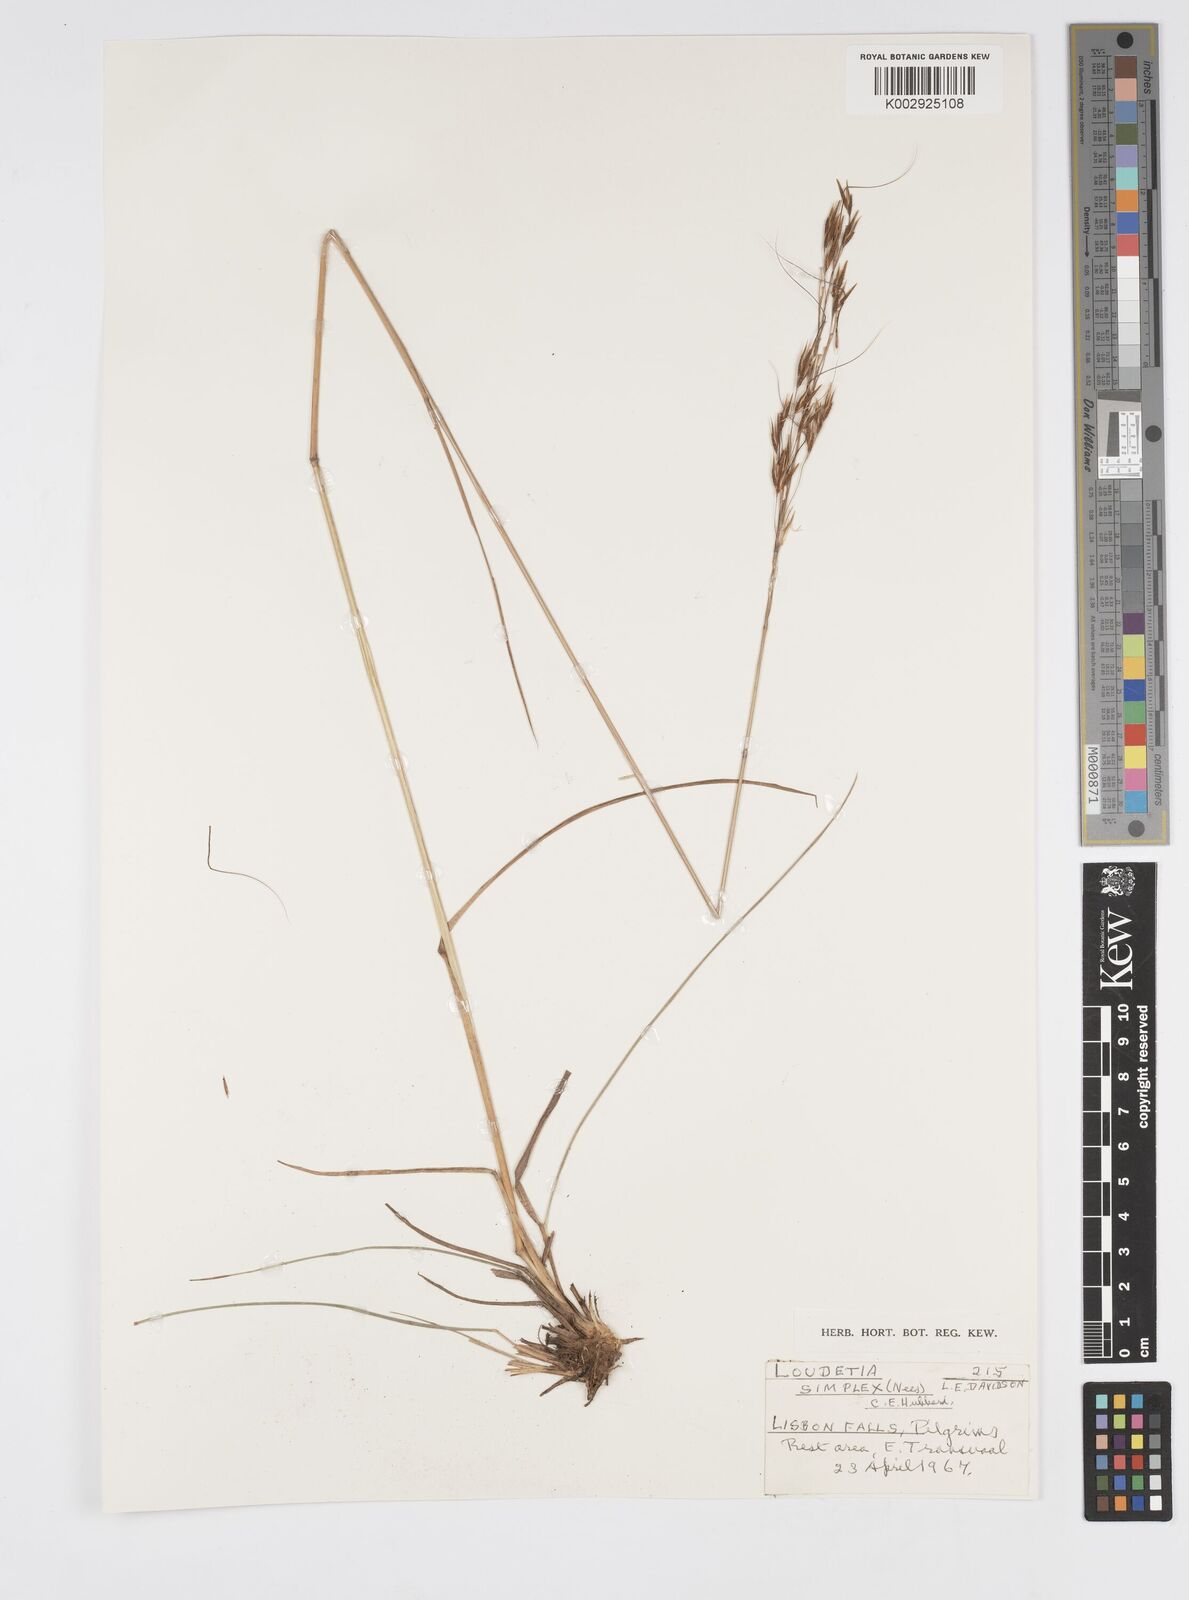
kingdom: Plantae
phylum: Tracheophyta
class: Liliopsida
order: Poales
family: Poaceae
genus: Loudetia
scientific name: Loudetia simplex
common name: Common russet grass
